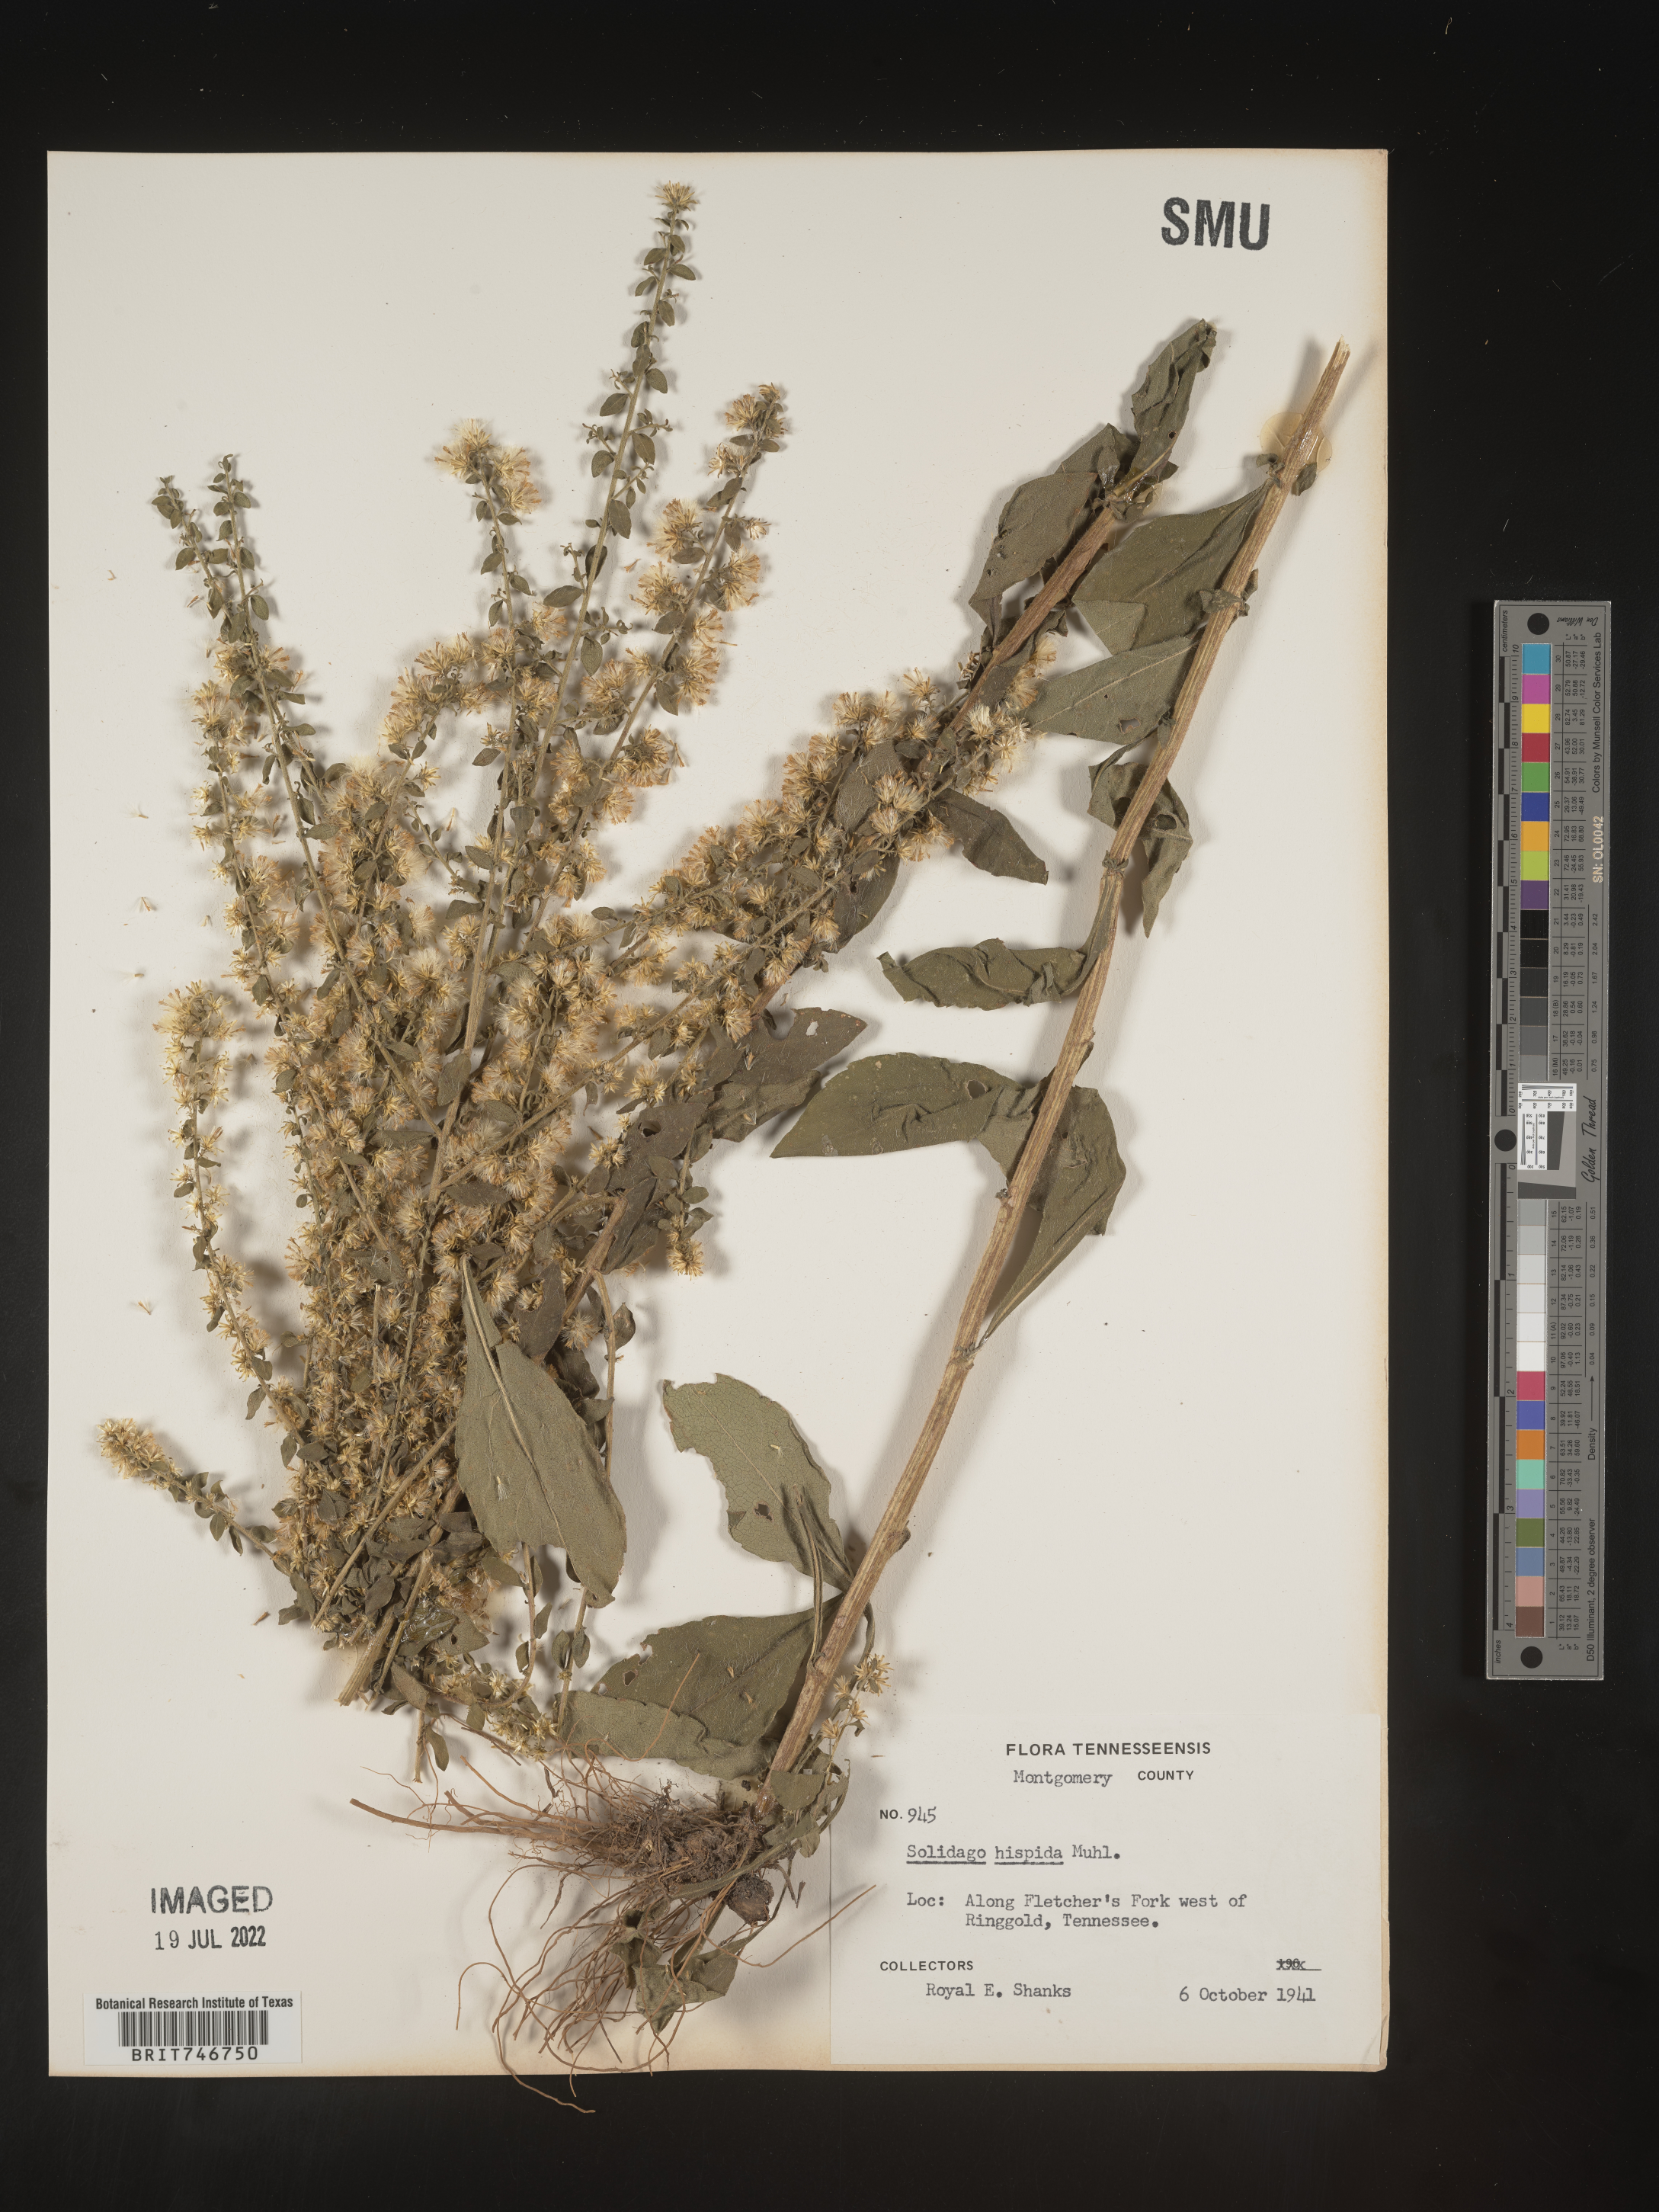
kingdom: Plantae
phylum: Tracheophyta
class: Magnoliopsida
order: Asterales
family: Asteraceae
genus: Solidago
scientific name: Solidago hispida
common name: Hairy goldenrod
